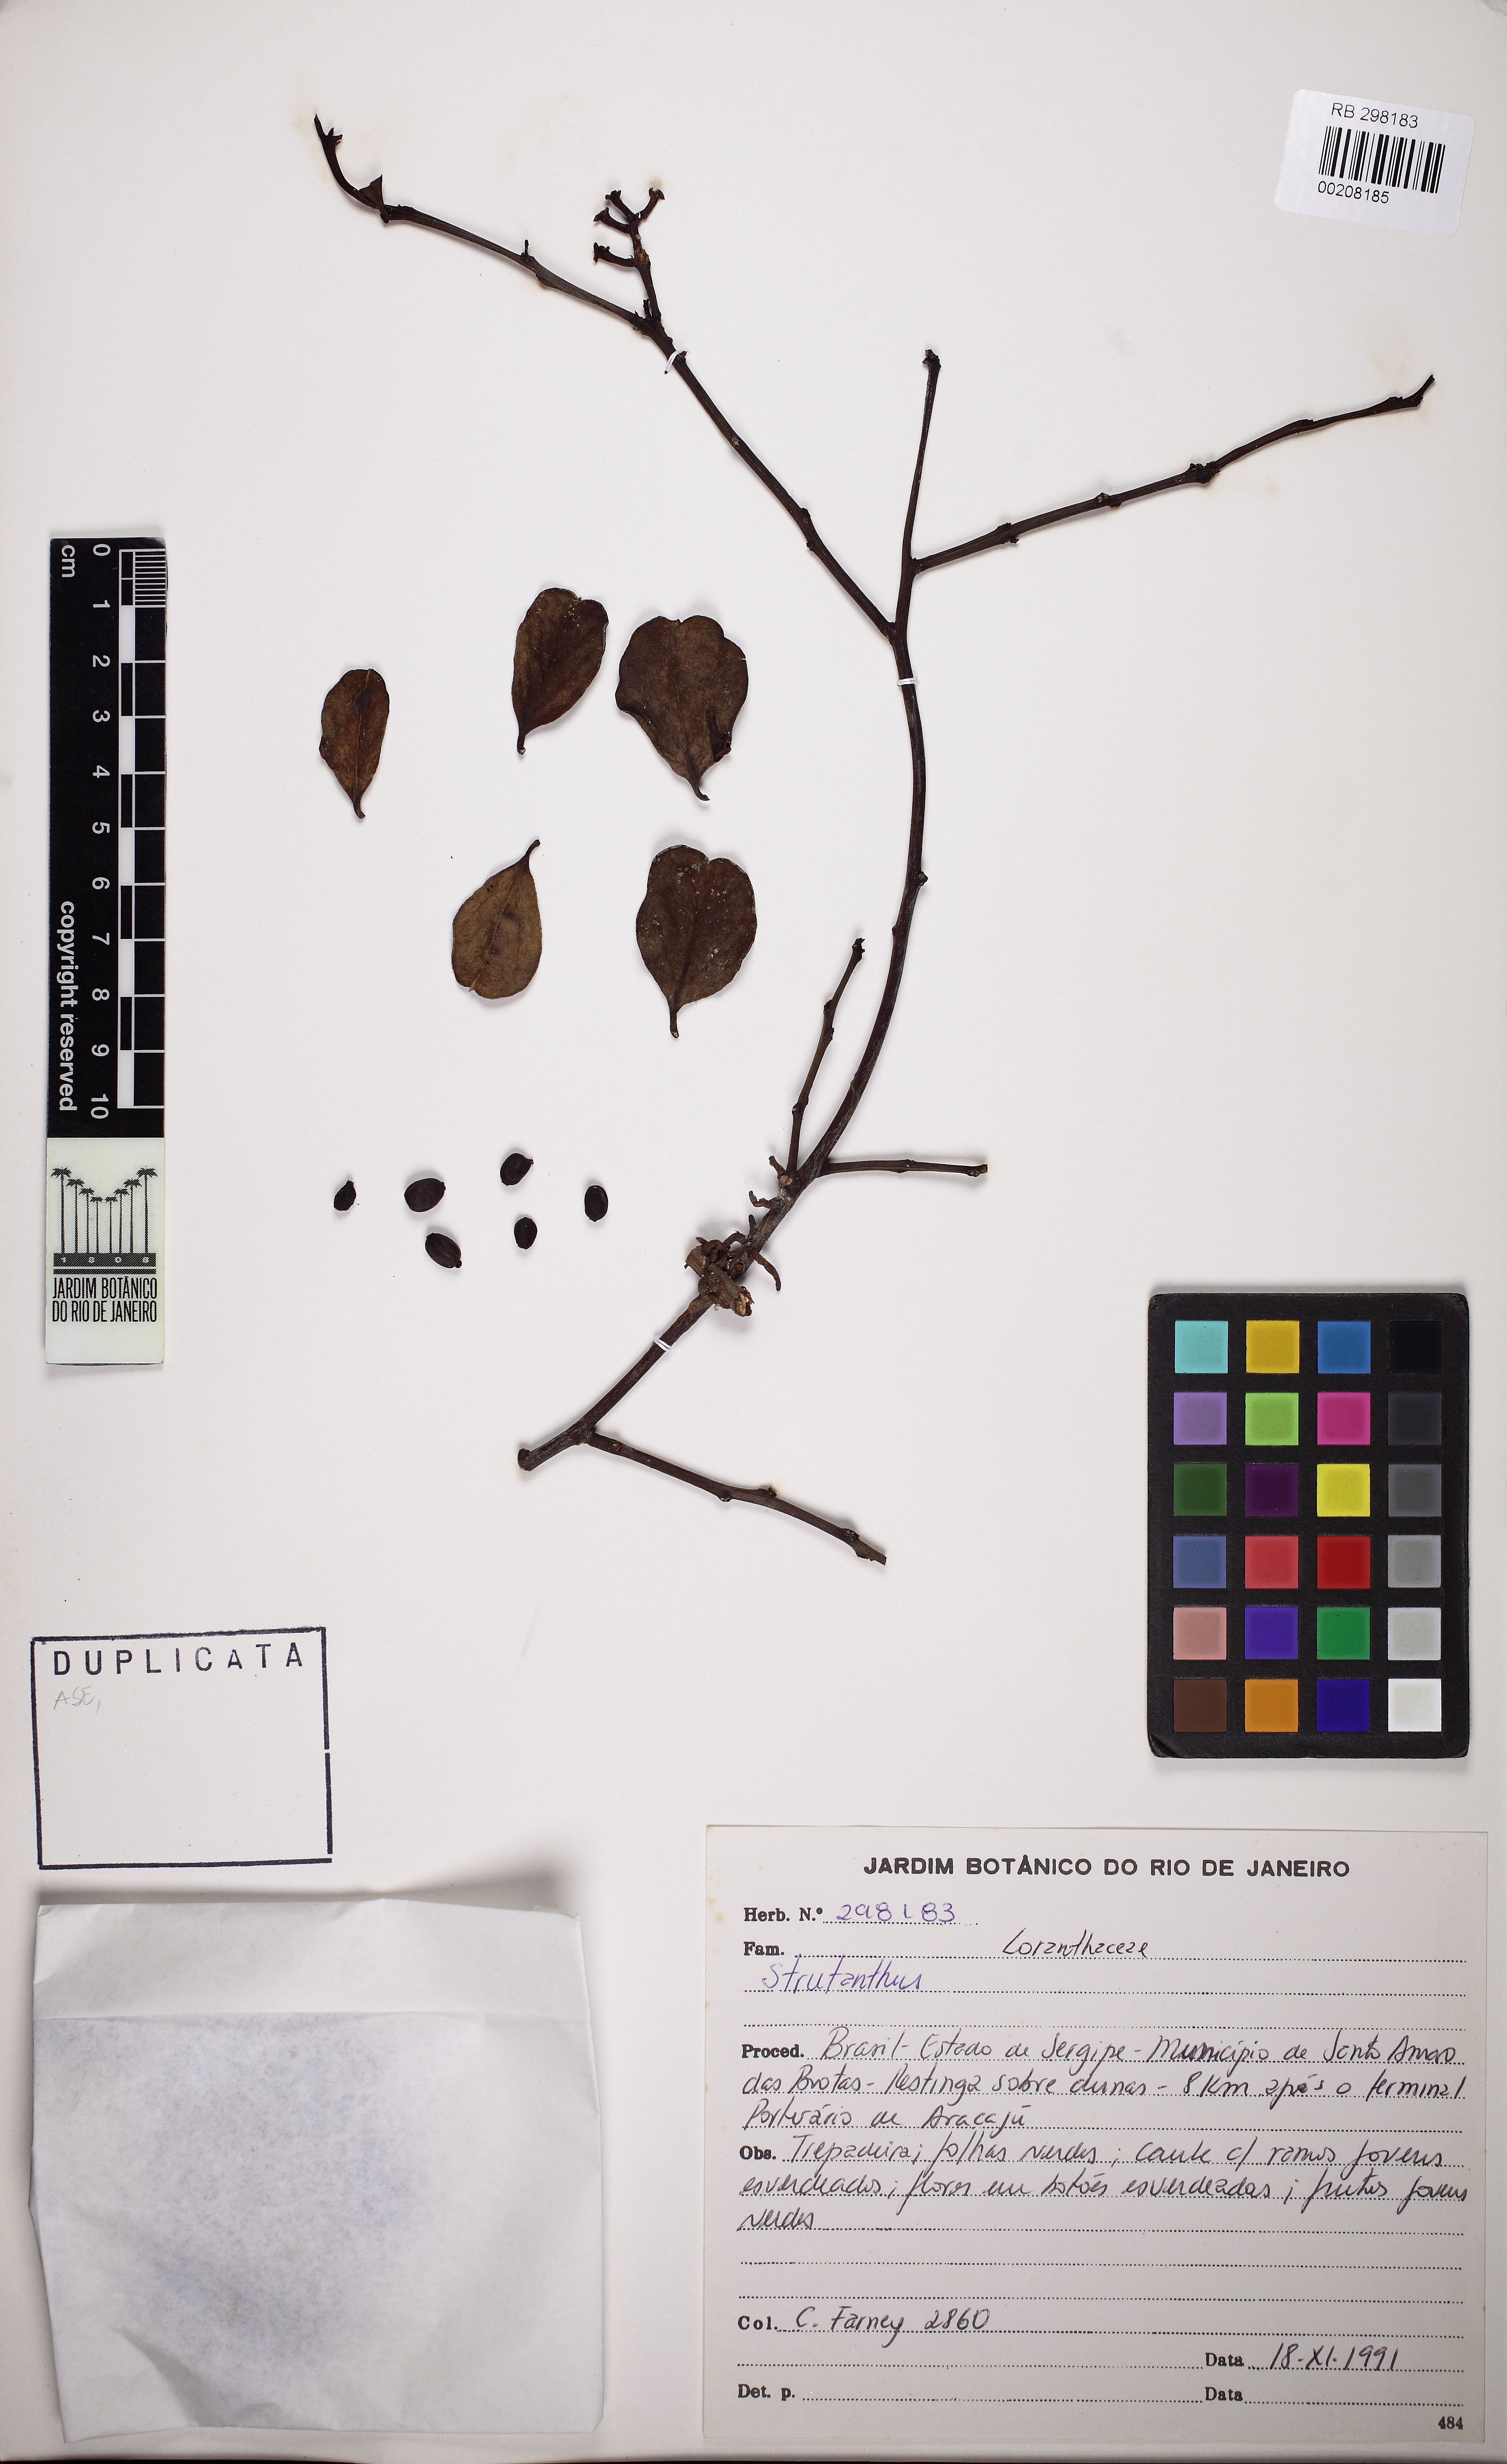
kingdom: Plantae
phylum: Tracheophyta
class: Magnoliopsida
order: Santalales
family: Loranthaceae
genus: Struthanthus
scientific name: Struthanthus
